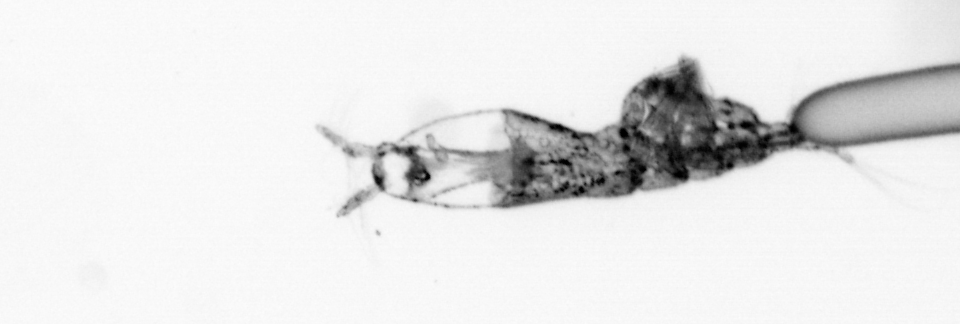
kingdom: Animalia
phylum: Arthropoda
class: Copepoda
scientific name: Copepoda
